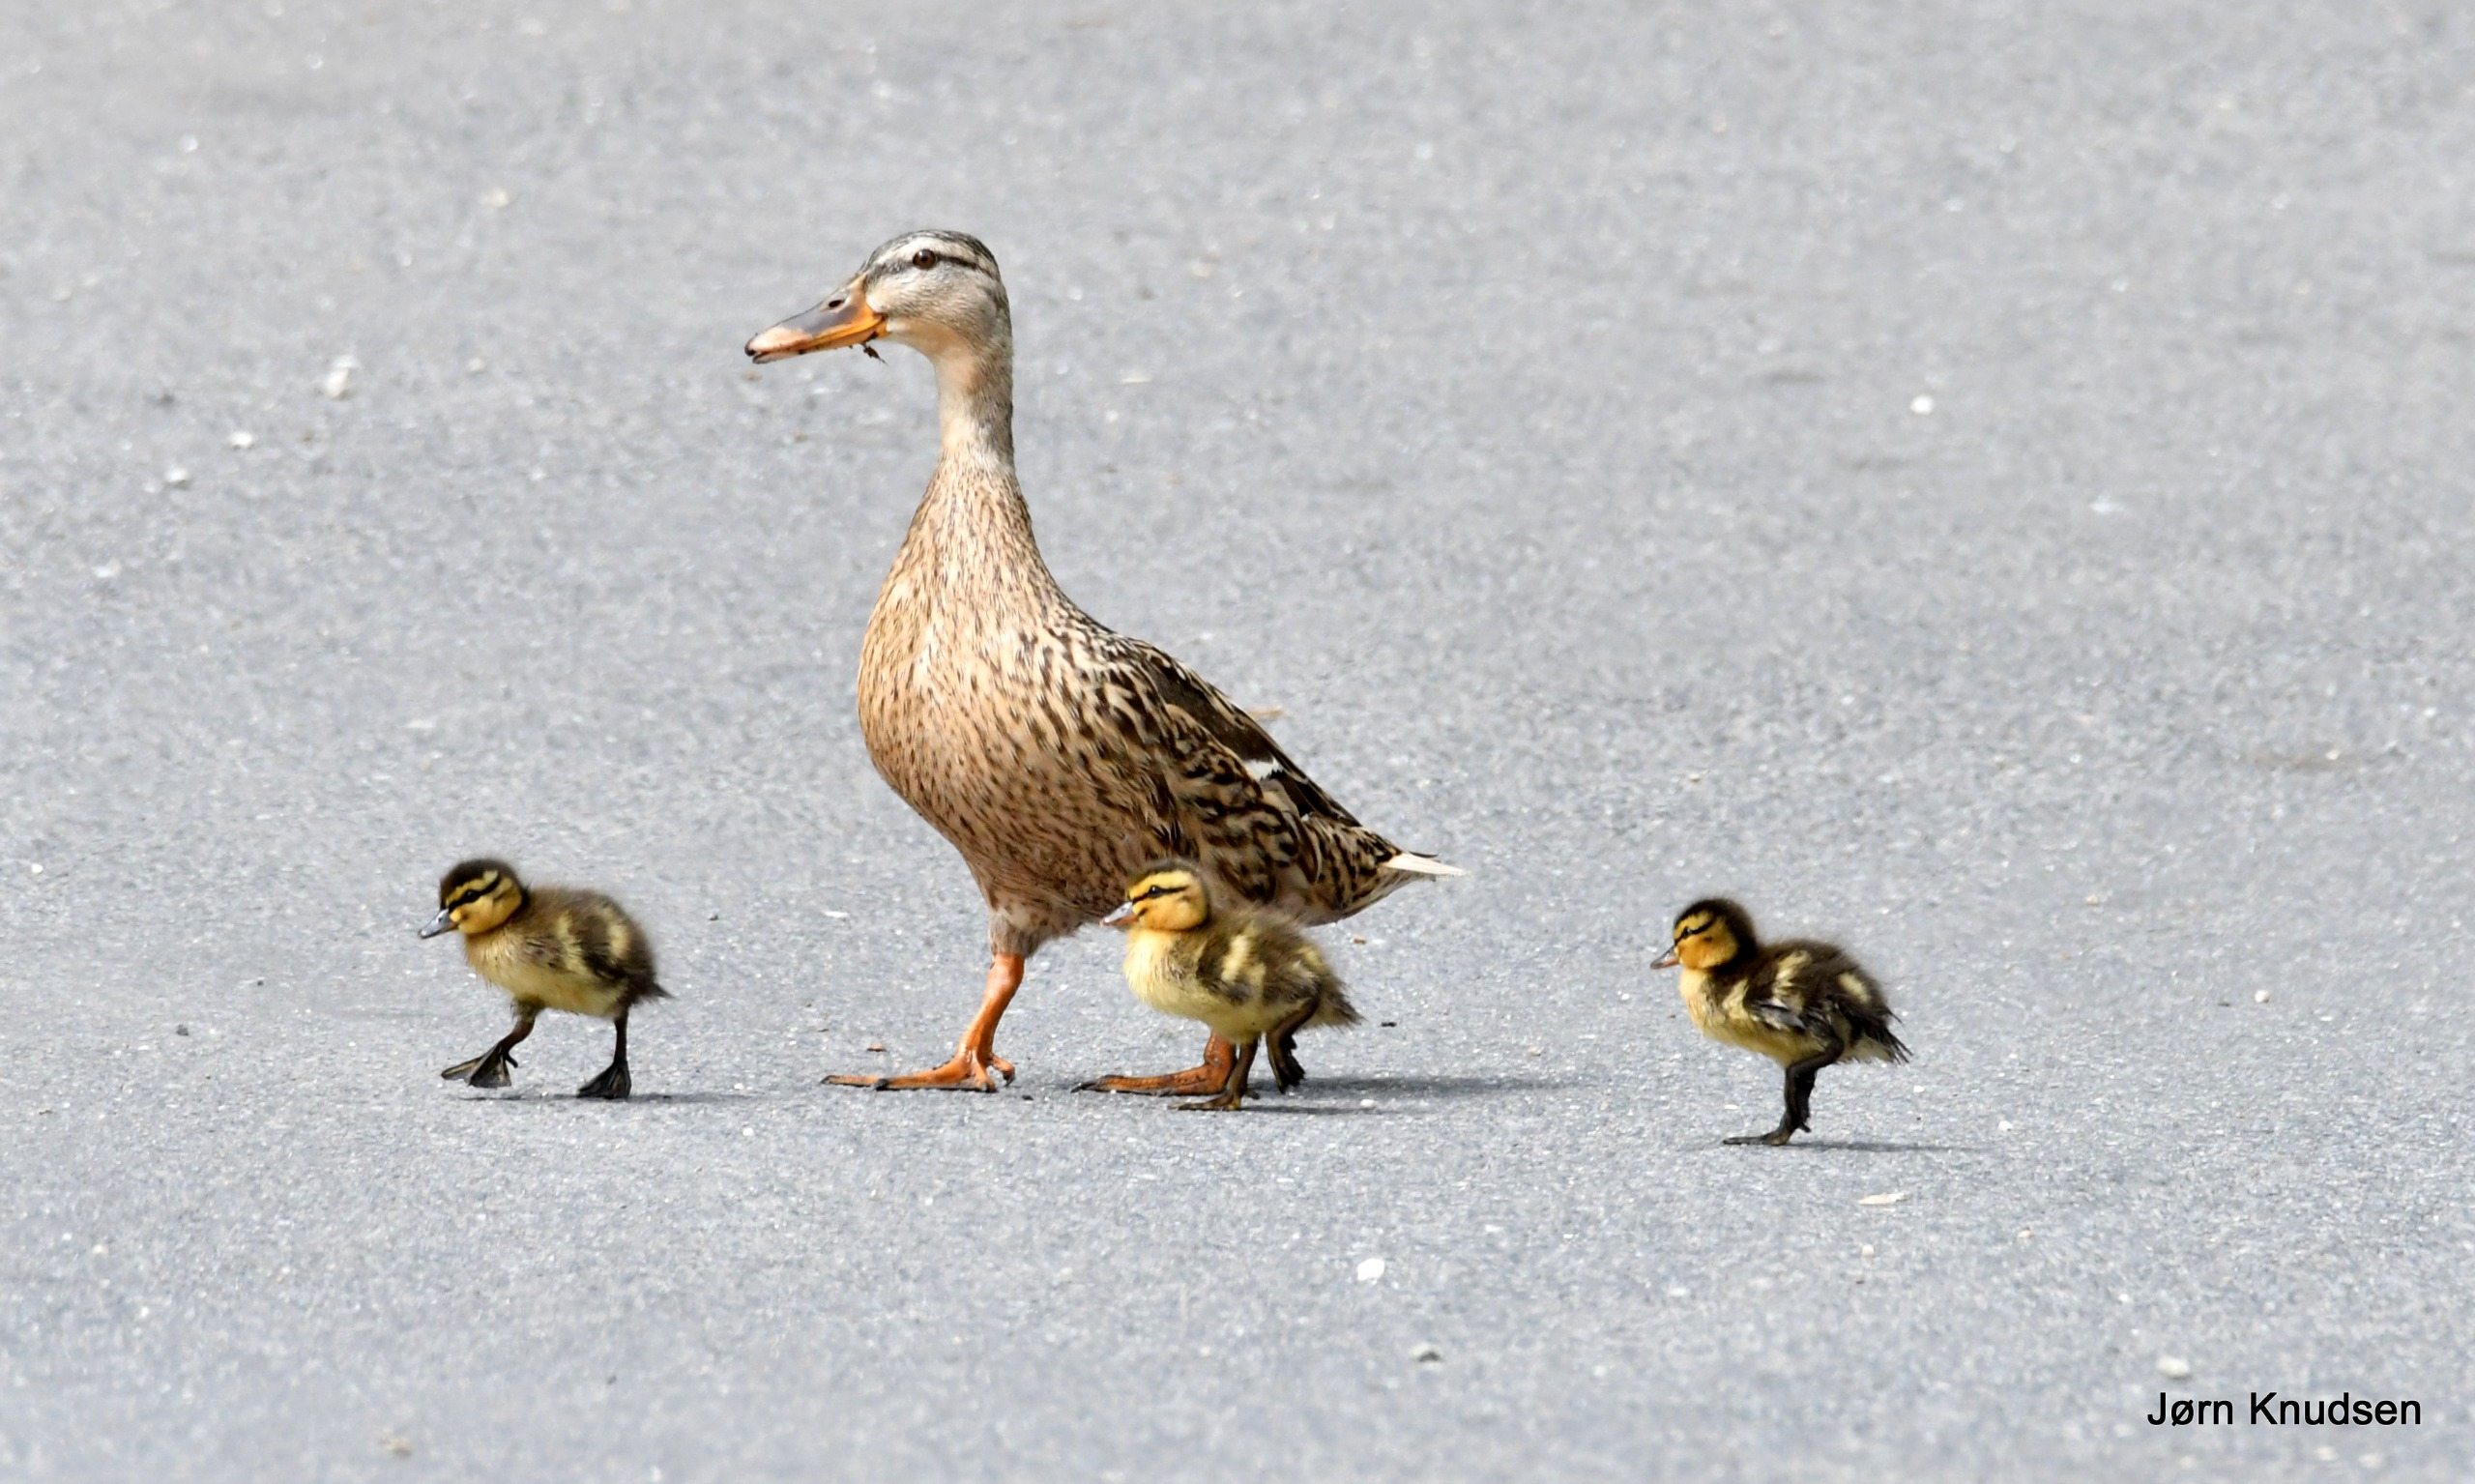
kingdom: Animalia
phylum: Chordata
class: Aves
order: Anseriformes
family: Anatidae
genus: Anas
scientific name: Anas platyrhynchos
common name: Gråand
